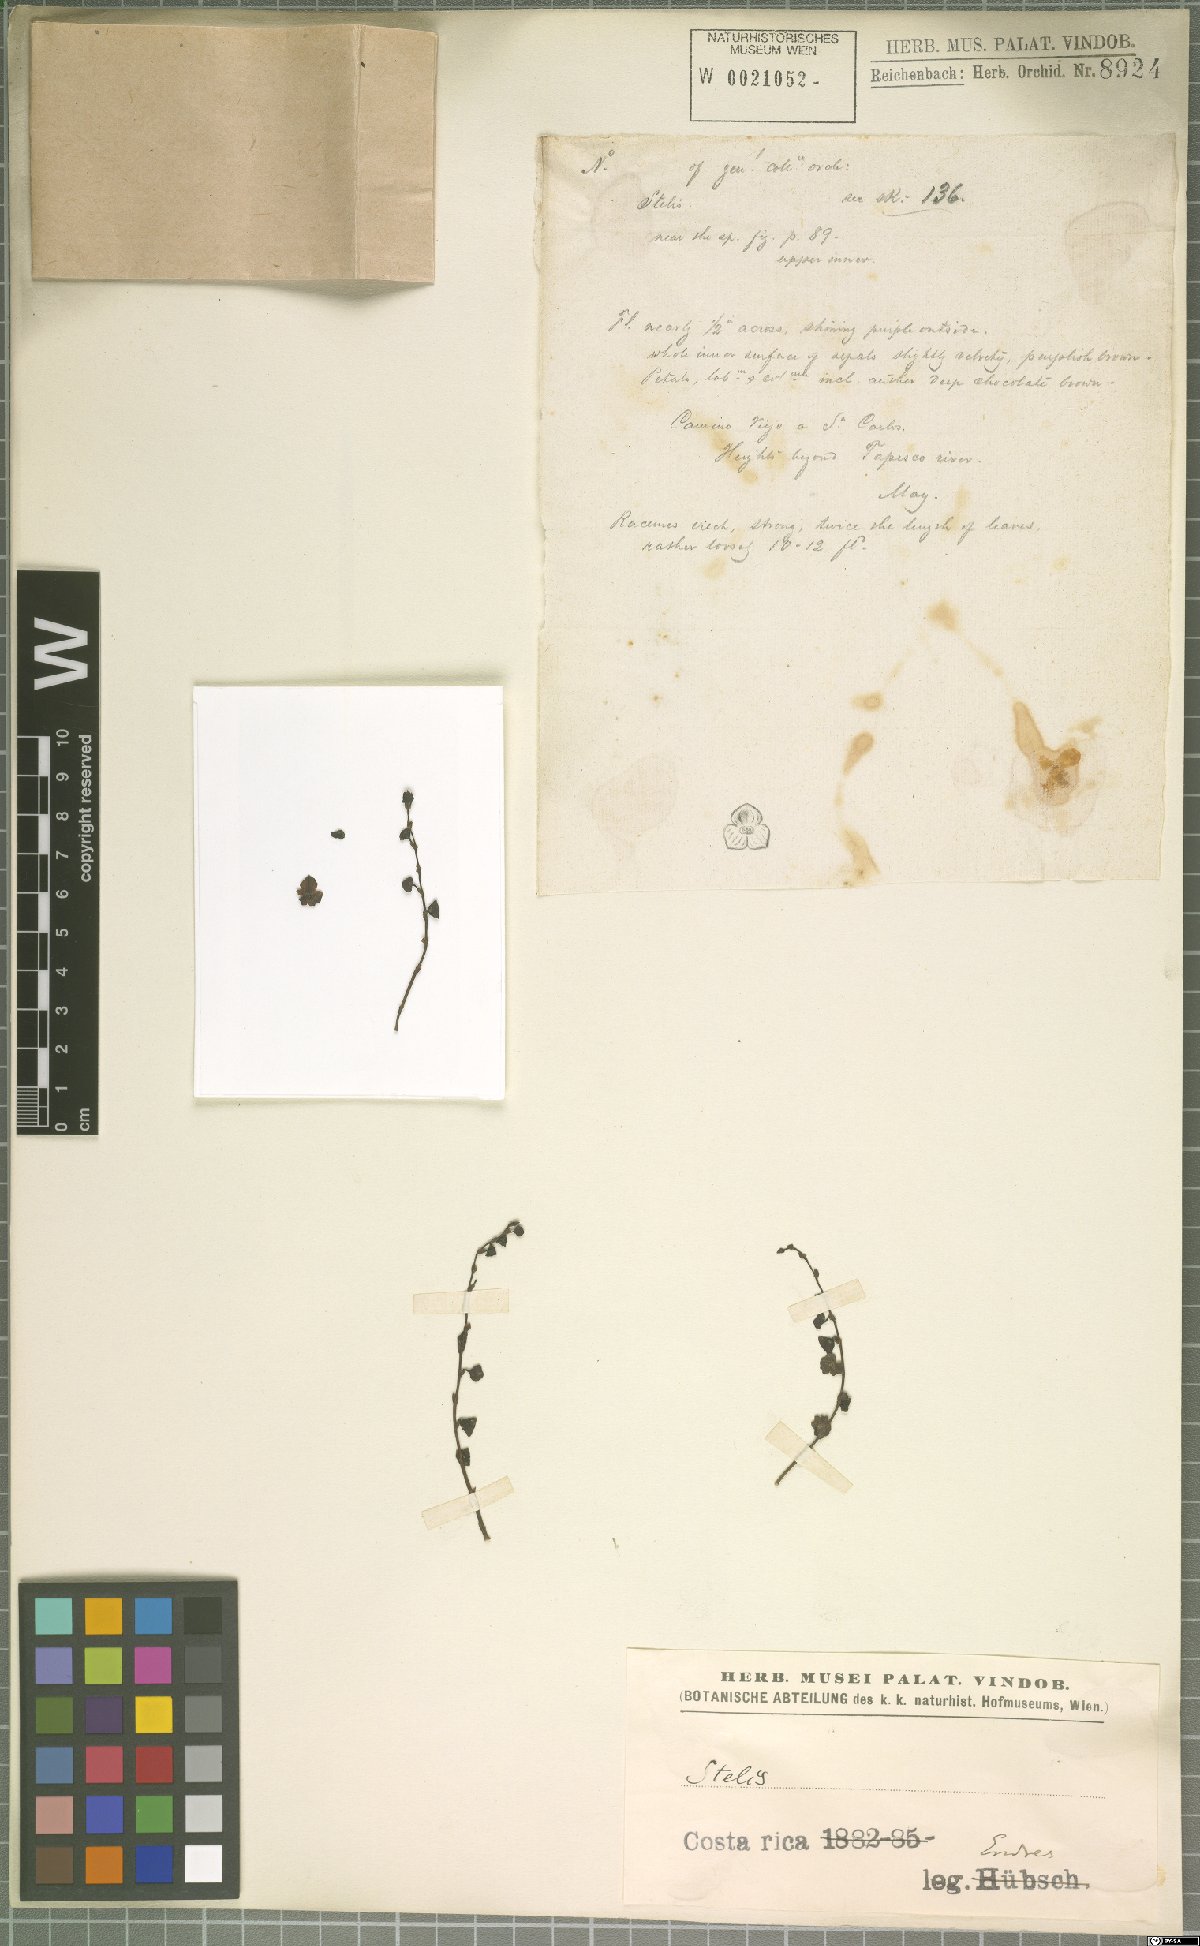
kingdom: Plantae
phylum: Tracheophyta
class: Liliopsida
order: Asparagales
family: Orchidaceae
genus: Stelis
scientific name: Stelis
